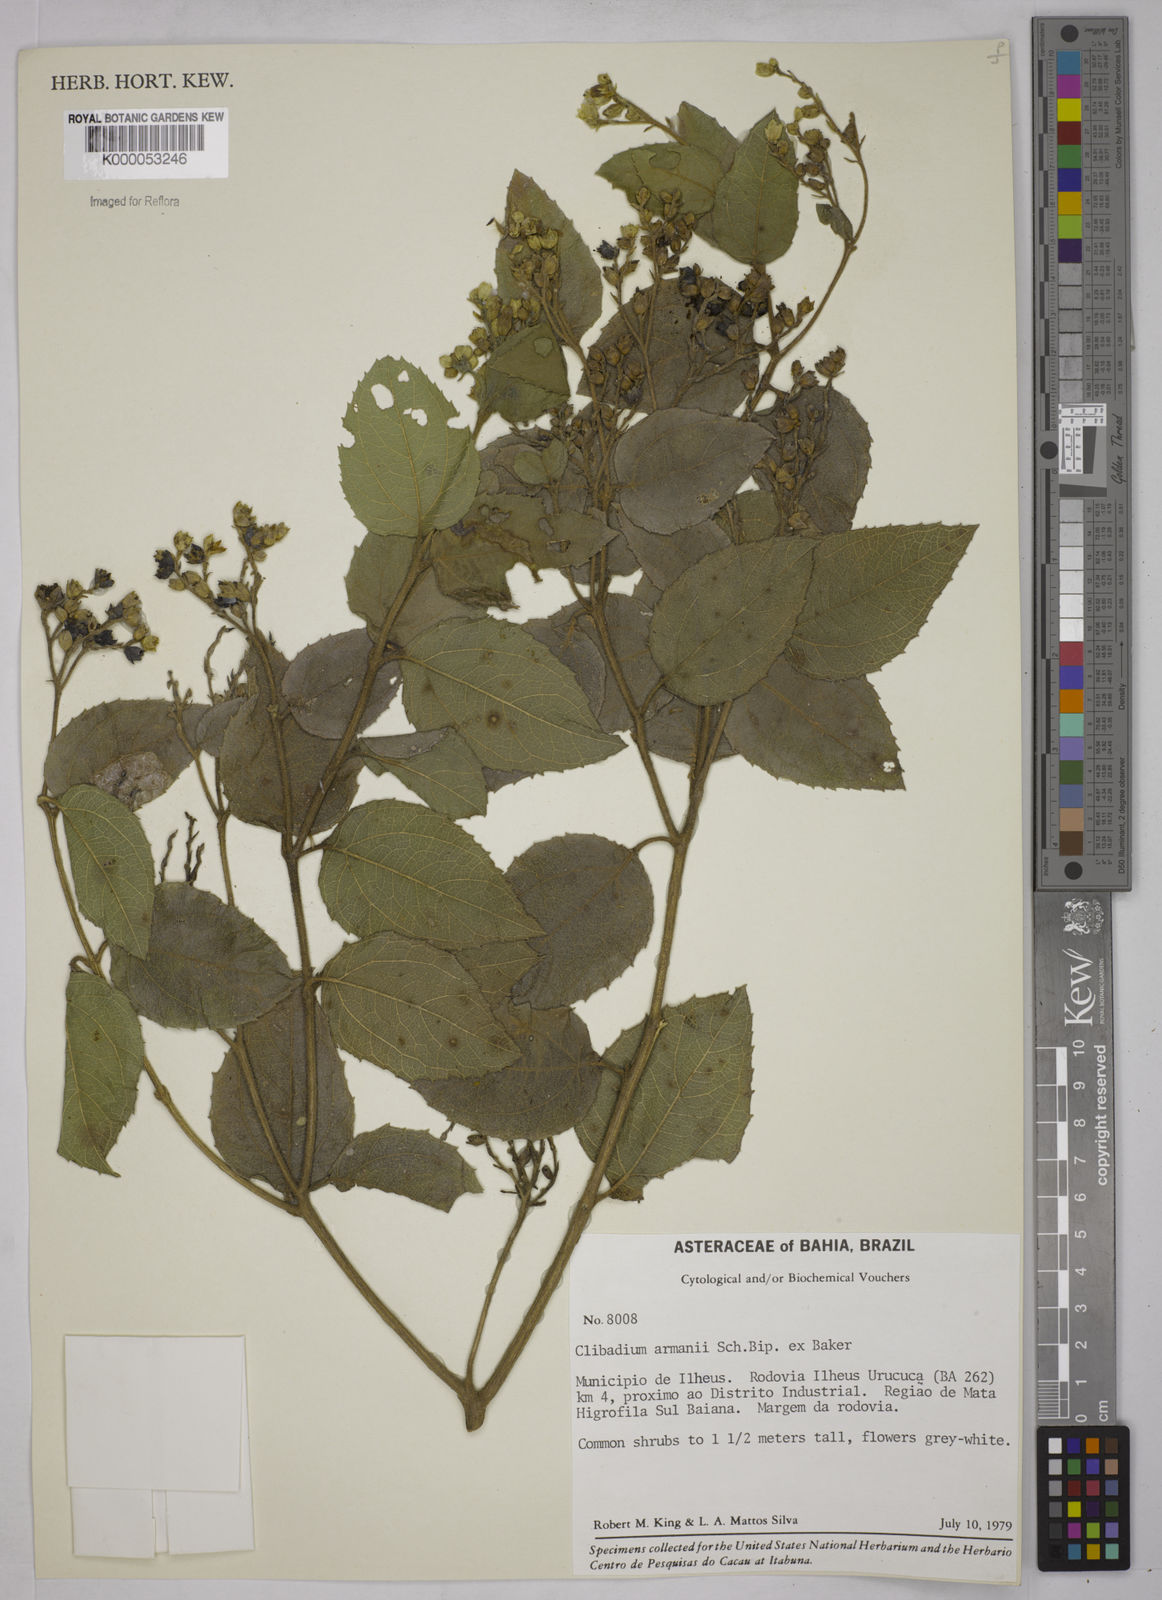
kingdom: Plantae
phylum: Tracheophyta
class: Magnoliopsida
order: Asterales
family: Asteraceae
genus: Clibadium
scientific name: Clibadium armanii
